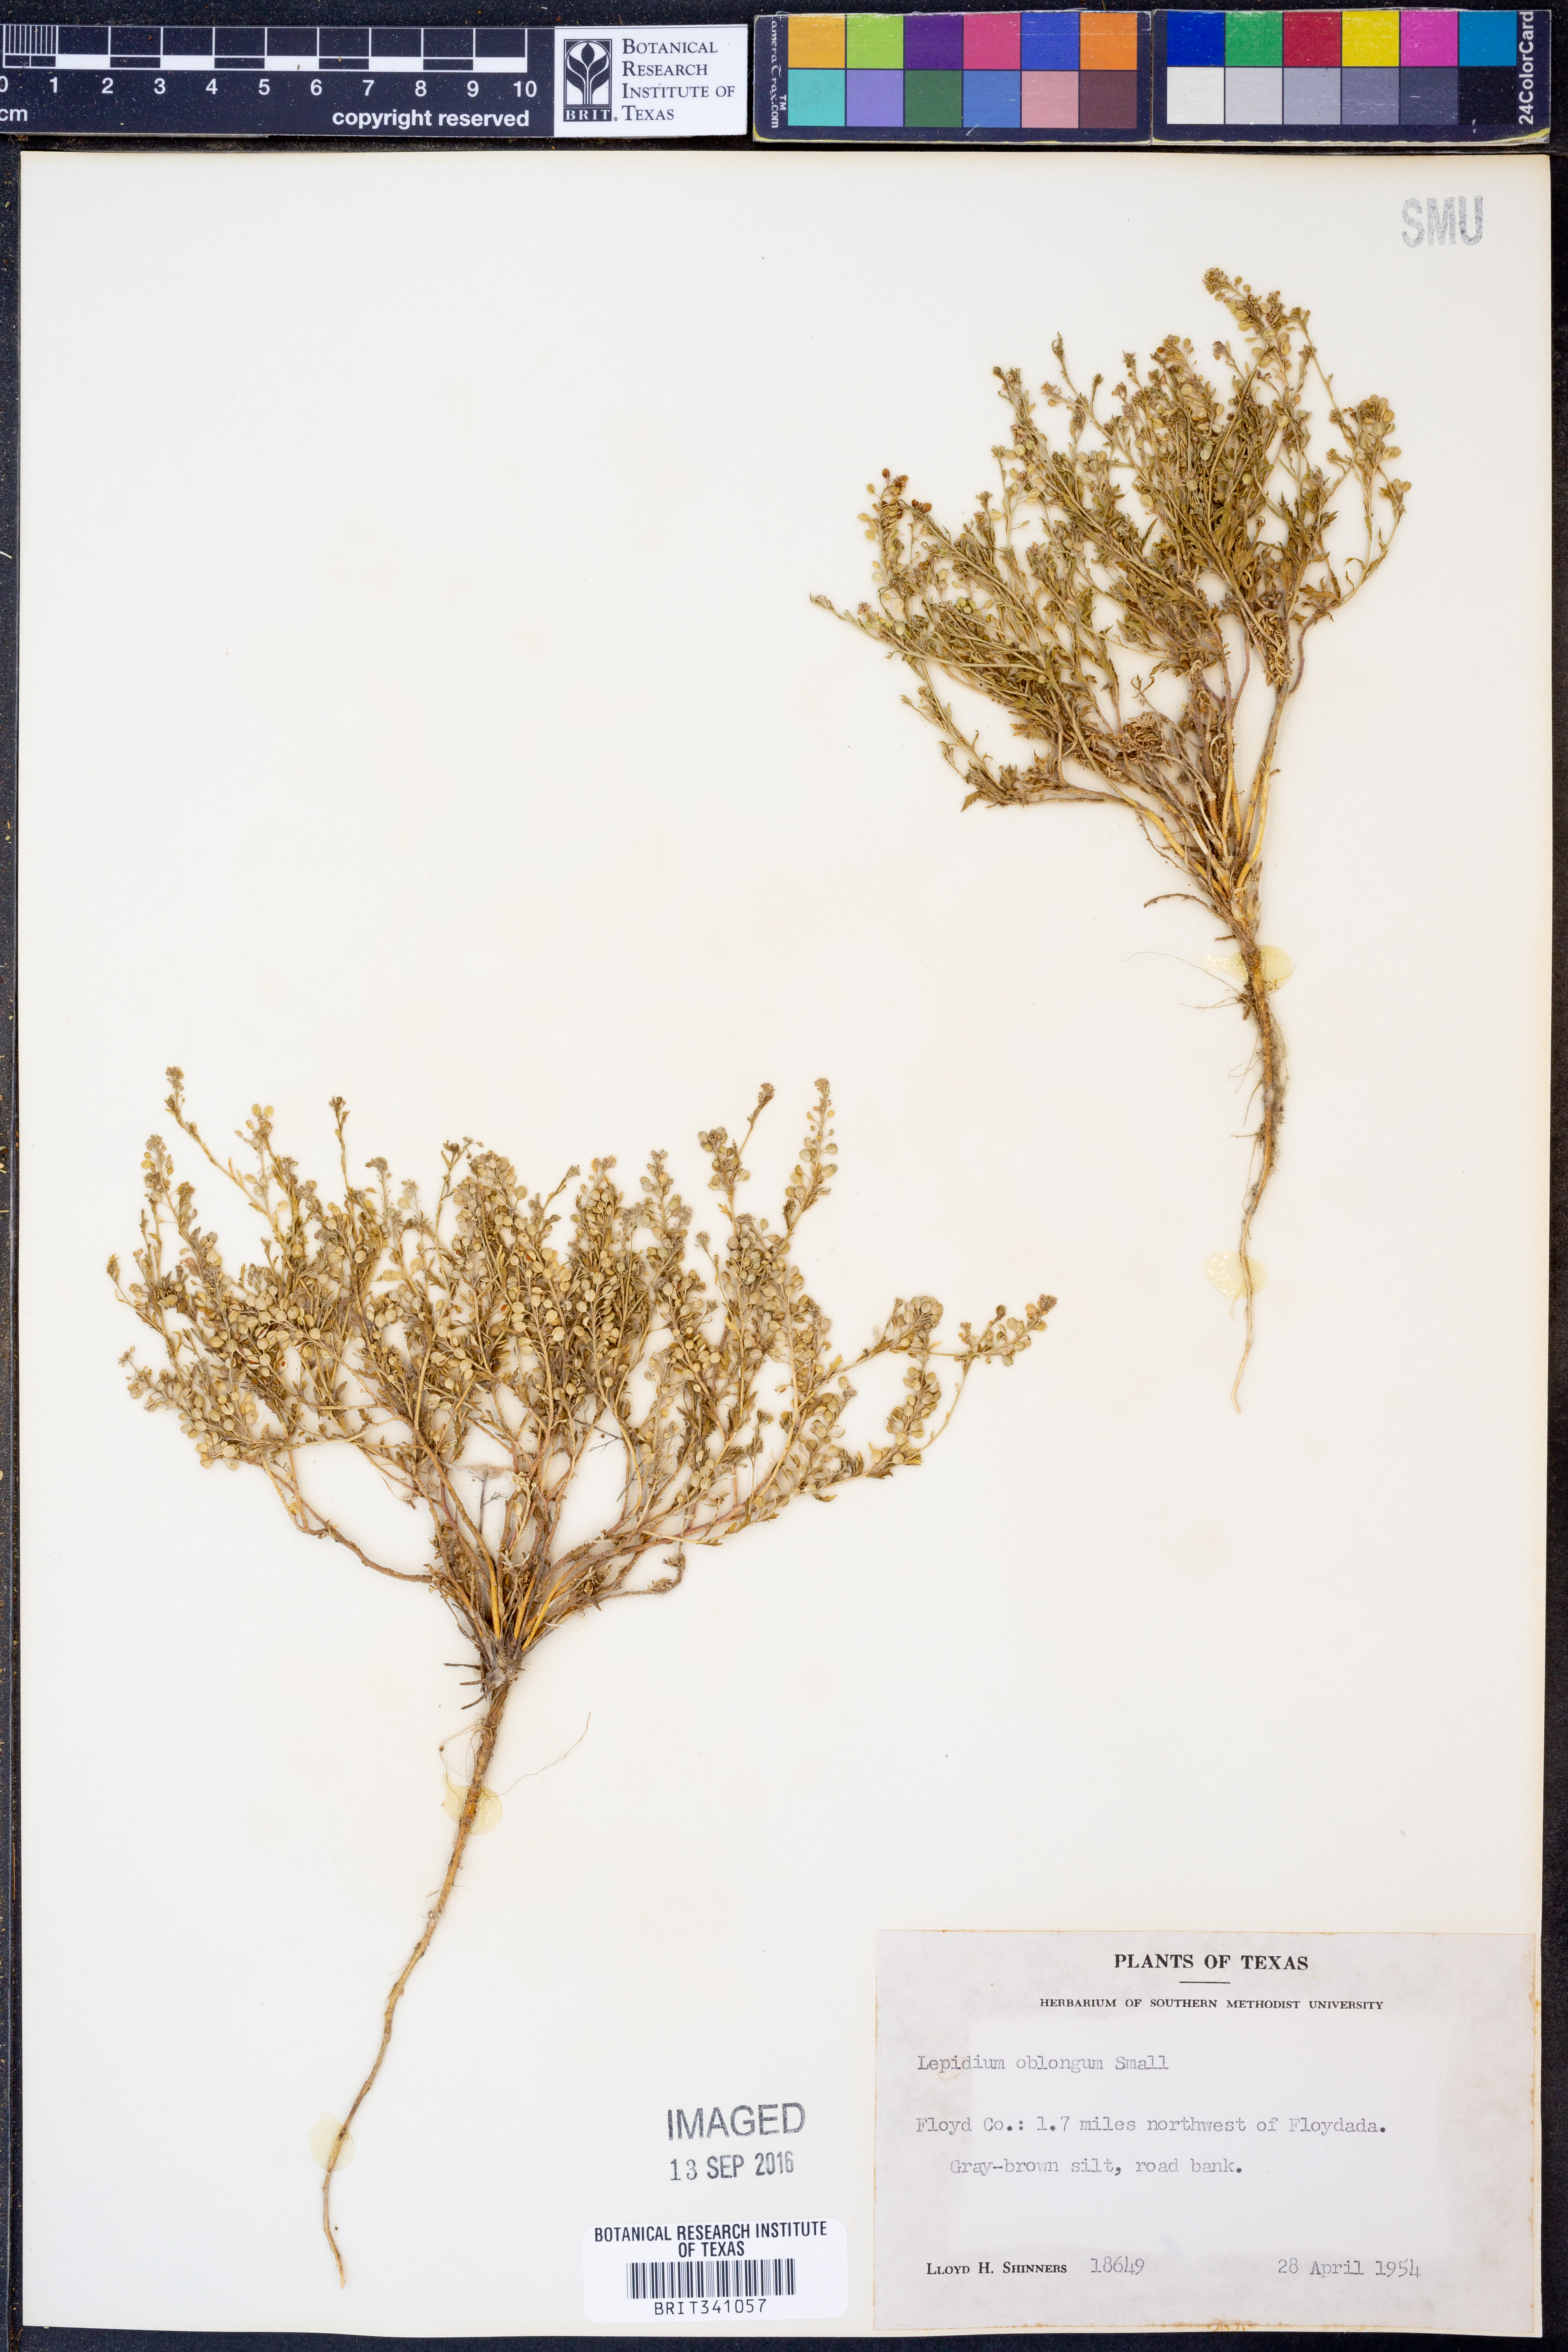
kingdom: Plantae
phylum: Tracheophyta
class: Magnoliopsida
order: Brassicales
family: Brassicaceae
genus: Lepidium
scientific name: Lepidium oblongum
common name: Veiny pepperweed
